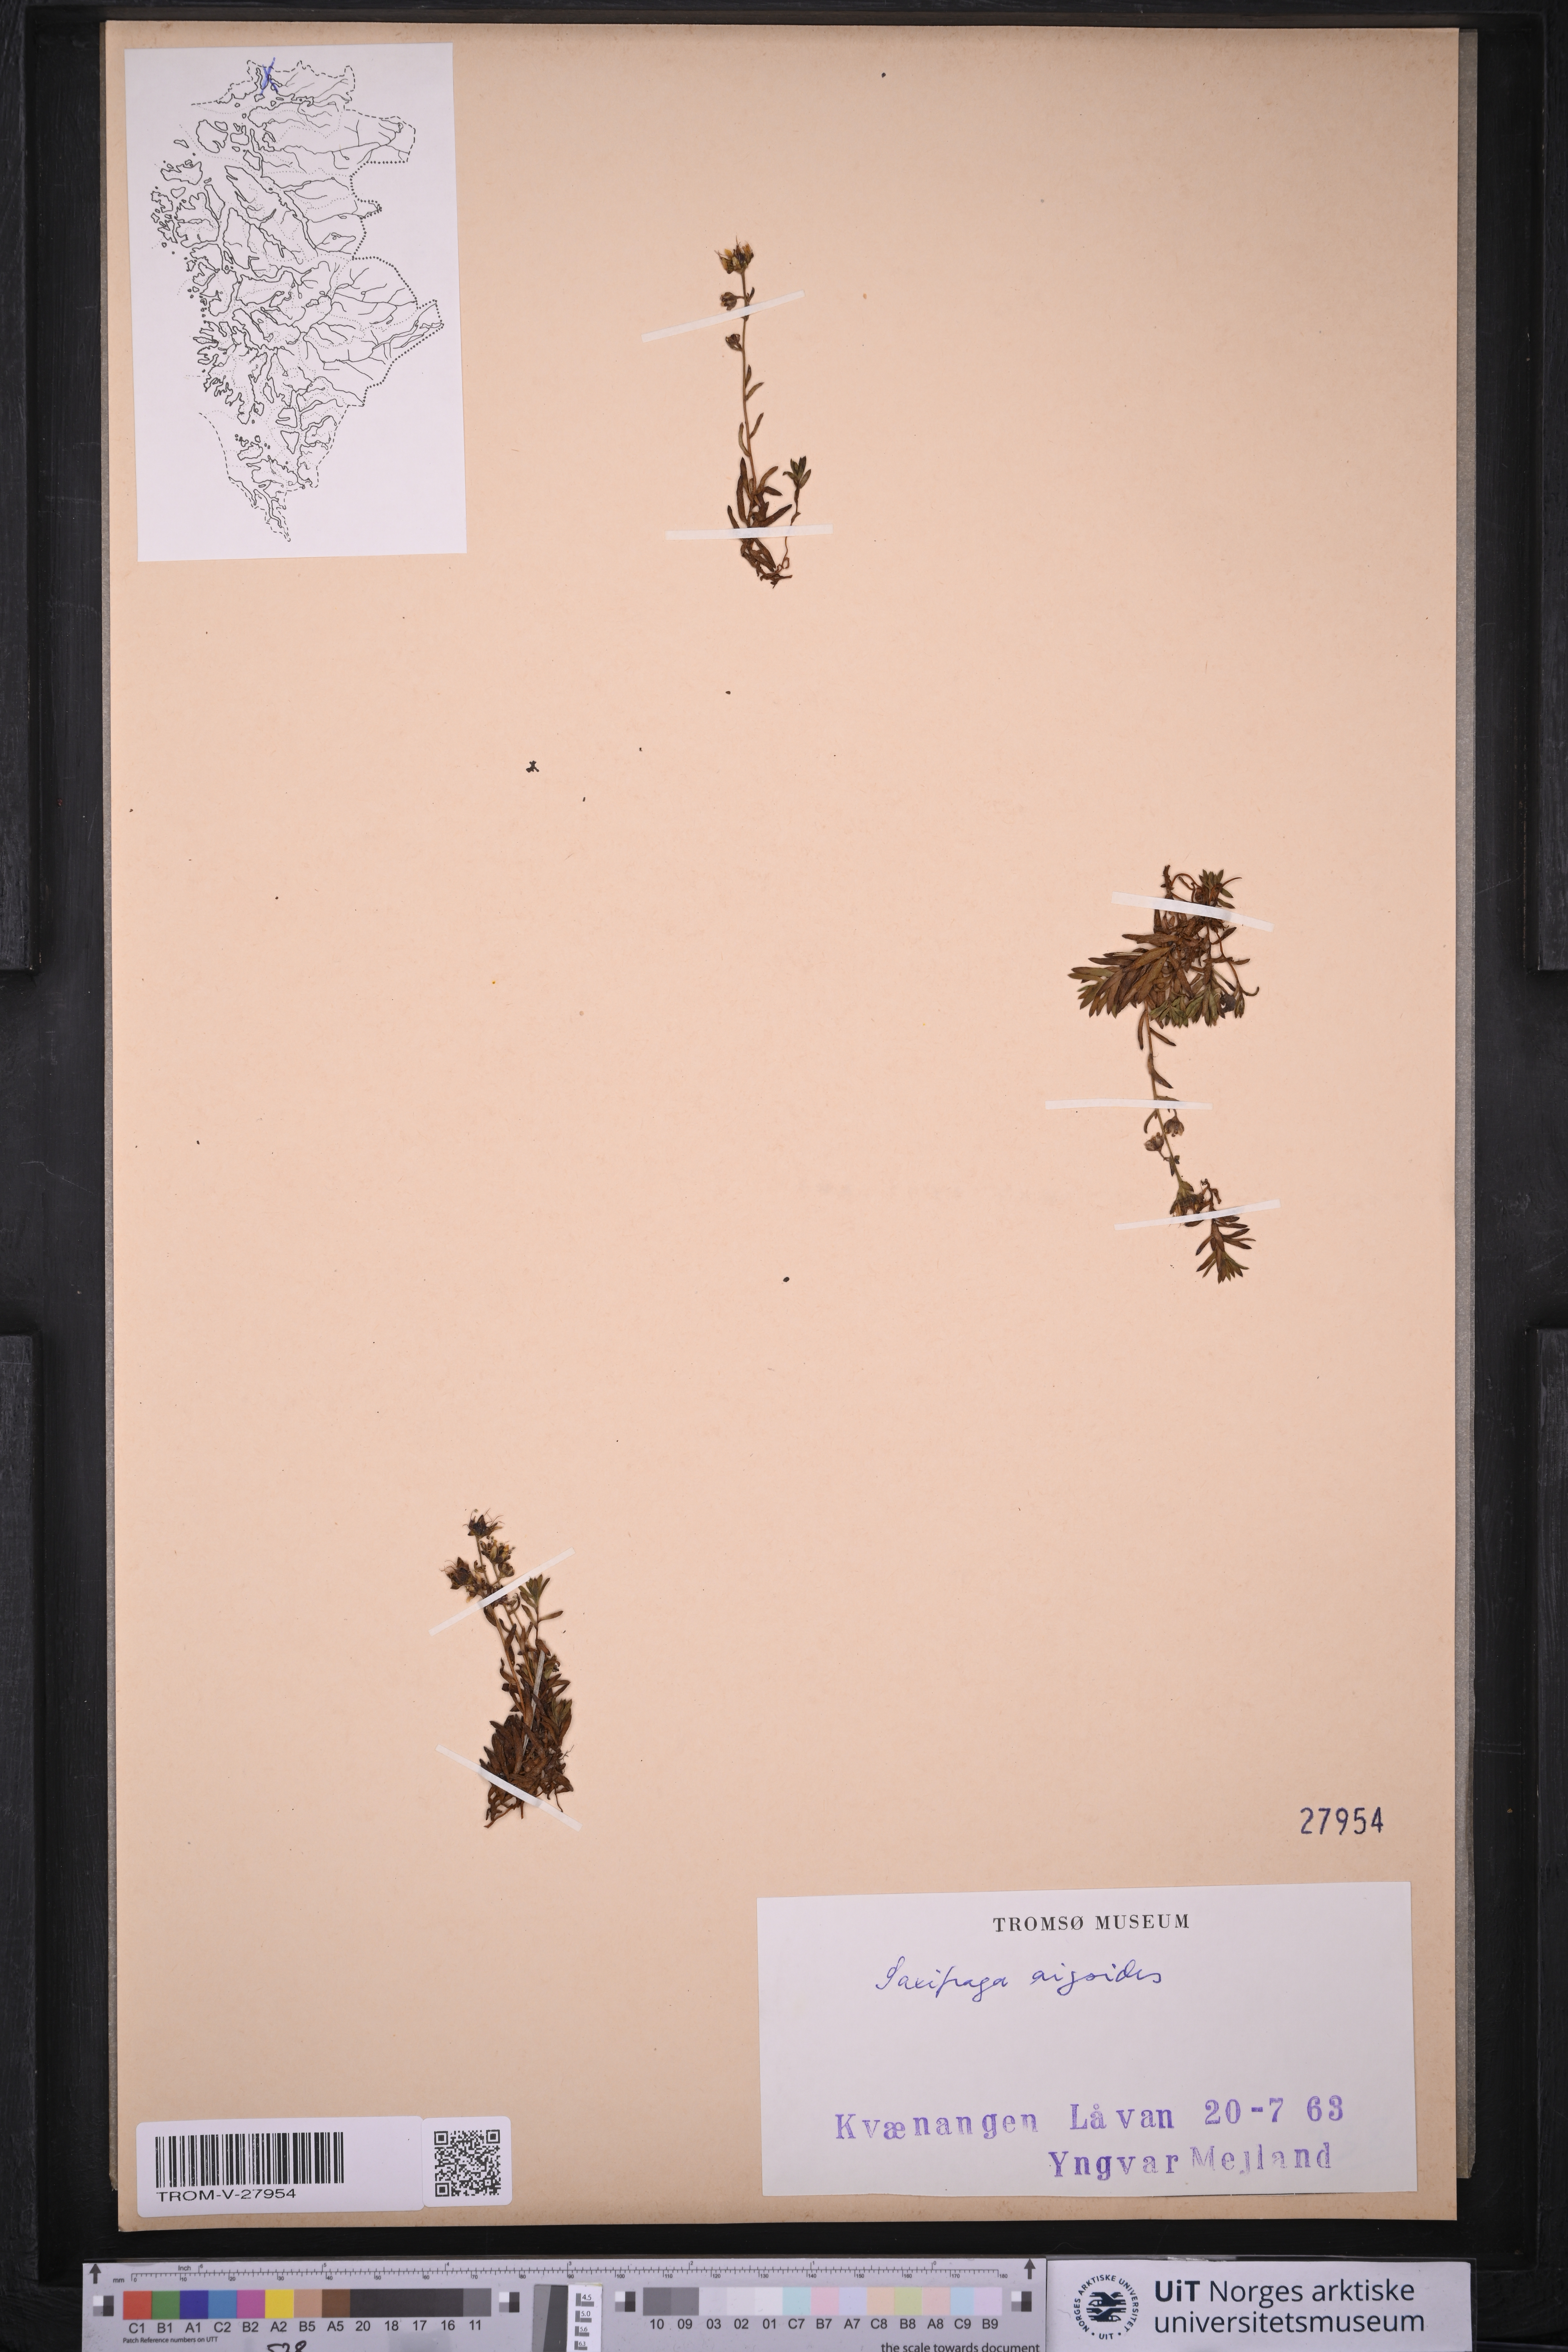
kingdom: Plantae
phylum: Tracheophyta
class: Magnoliopsida
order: Saxifragales
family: Saxifragaceae
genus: Saxifraga
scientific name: Saxifraga aizoides
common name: Yellow mountain saxifrage
